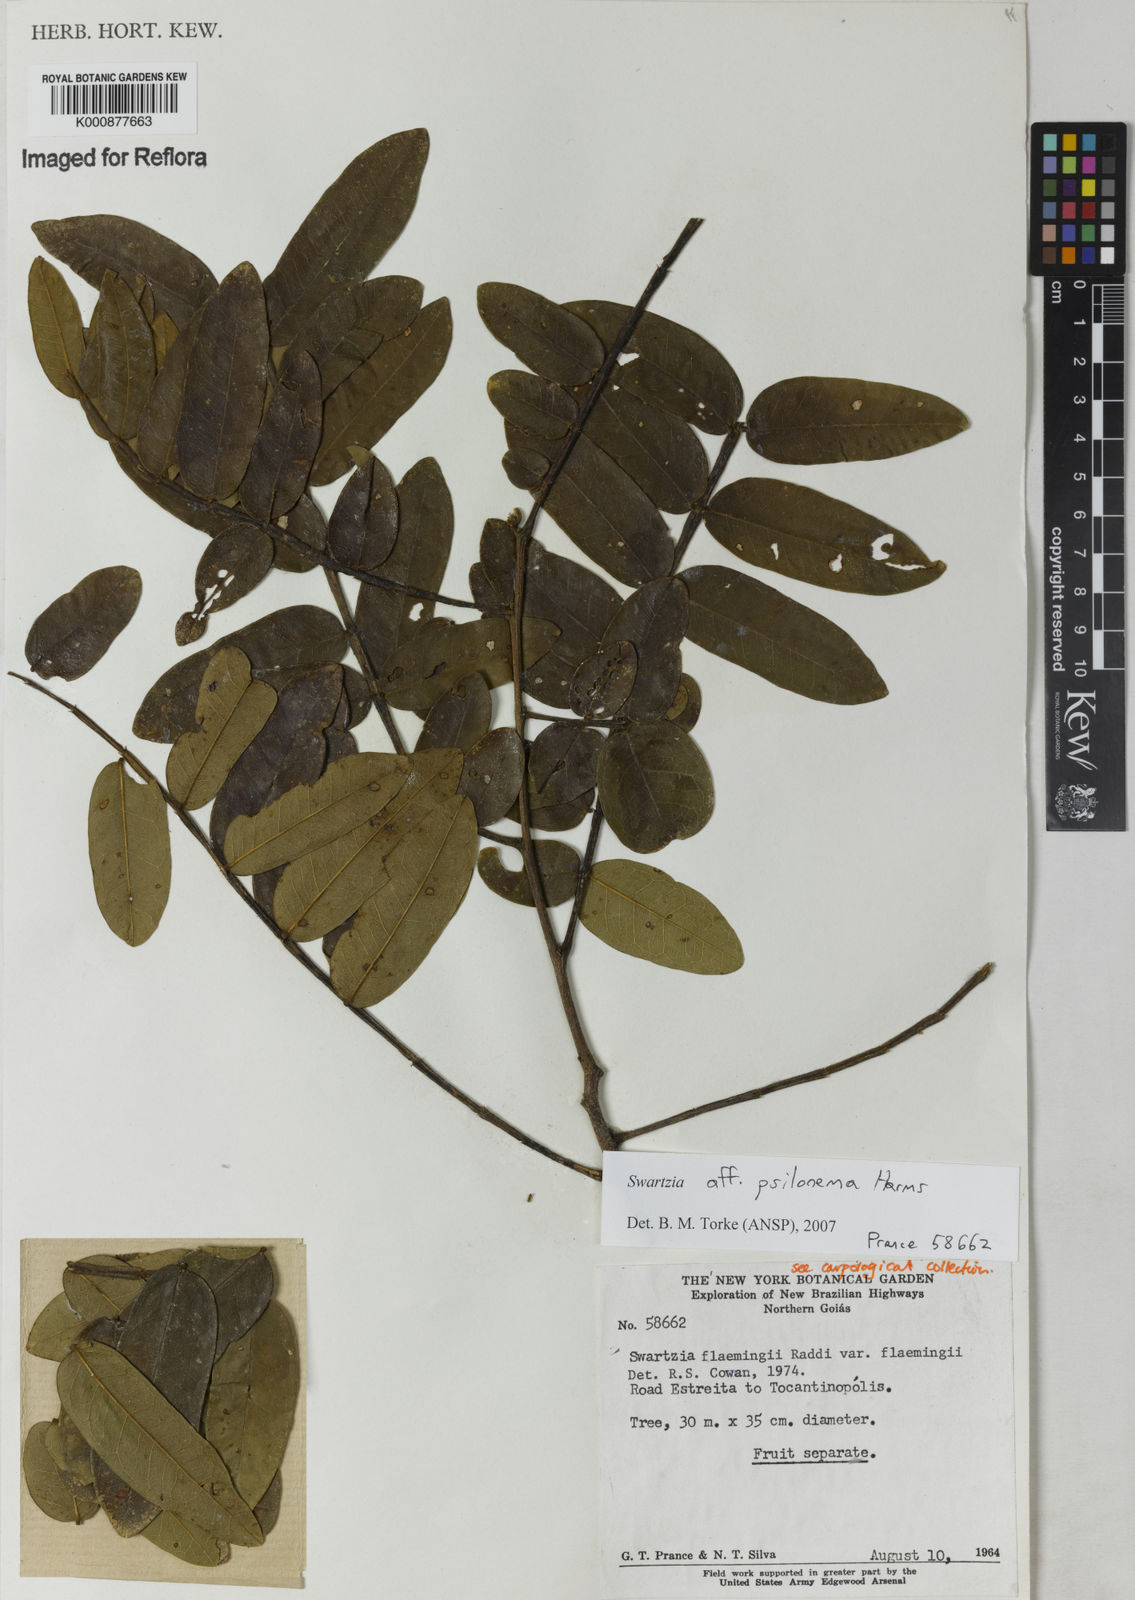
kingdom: Plantae
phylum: Tracheophyta
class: Magnoliopsida
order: Fabales
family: Fabaceae
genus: Swartzia
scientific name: Swartzia psilonema
